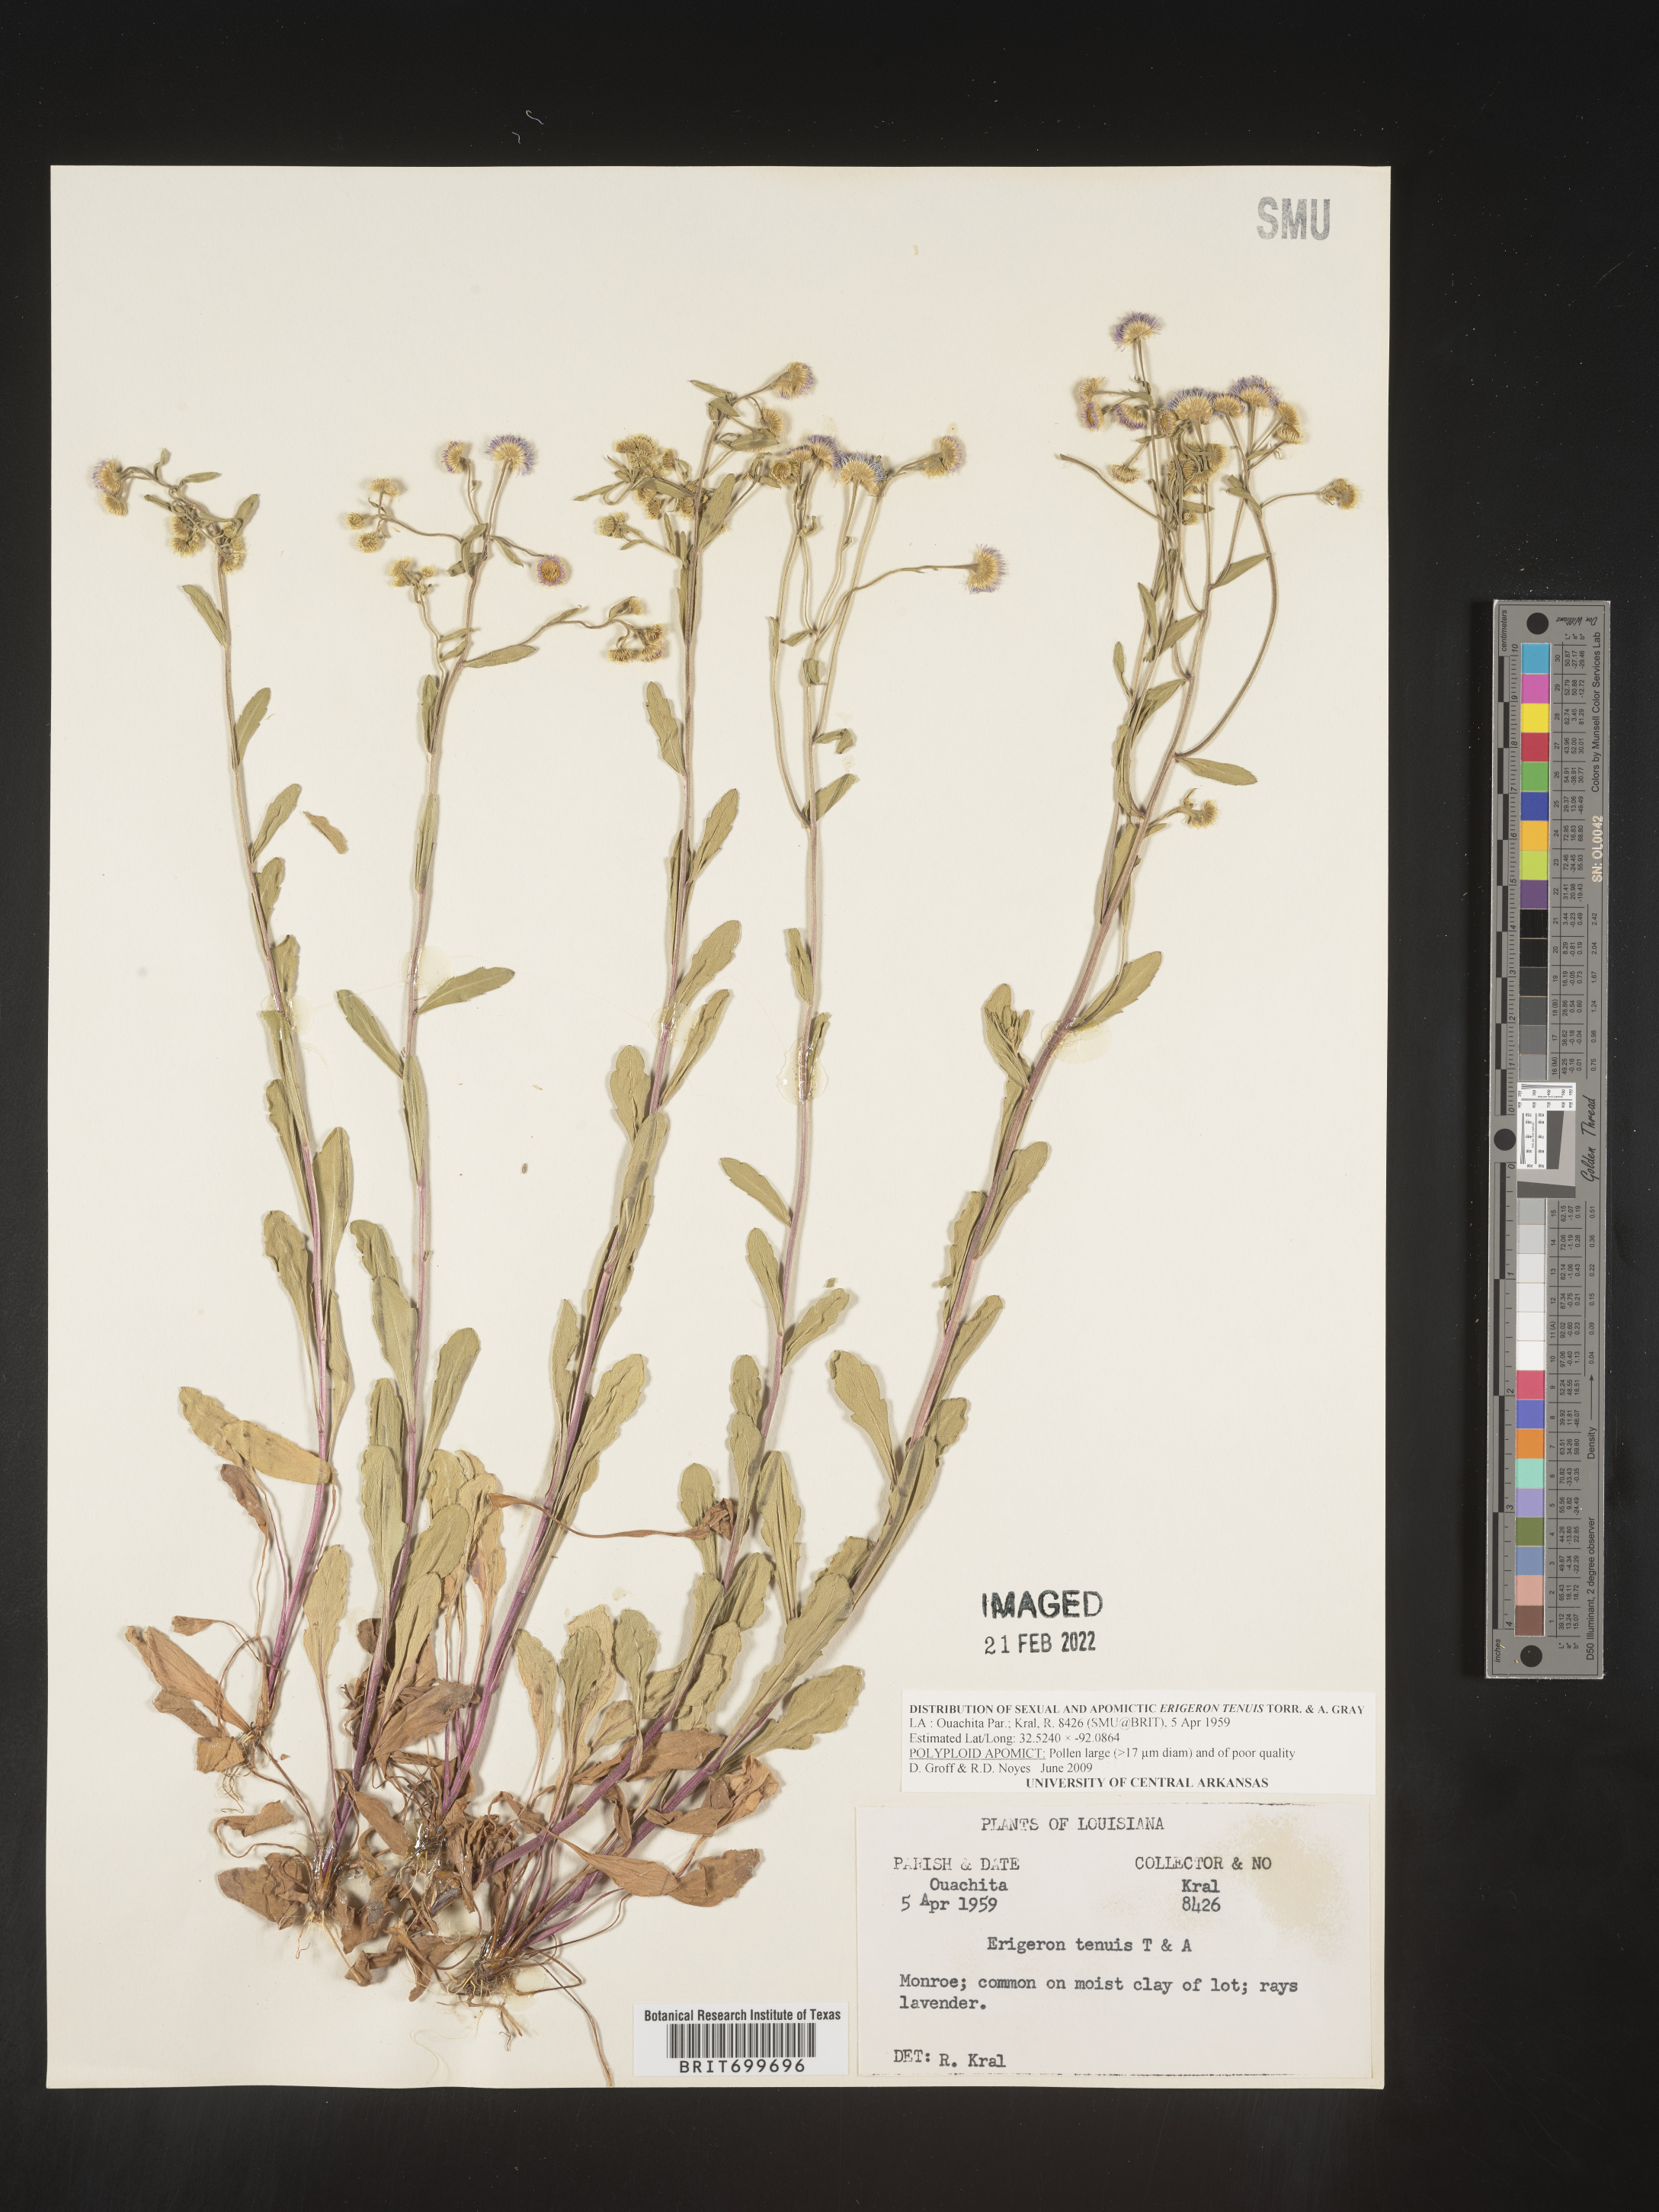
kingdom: Plantae
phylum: Tracheophyta
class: Magnoliopsida
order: Asterales
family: Asteraceae
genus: Erigeron
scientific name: Erigeron tenuis
